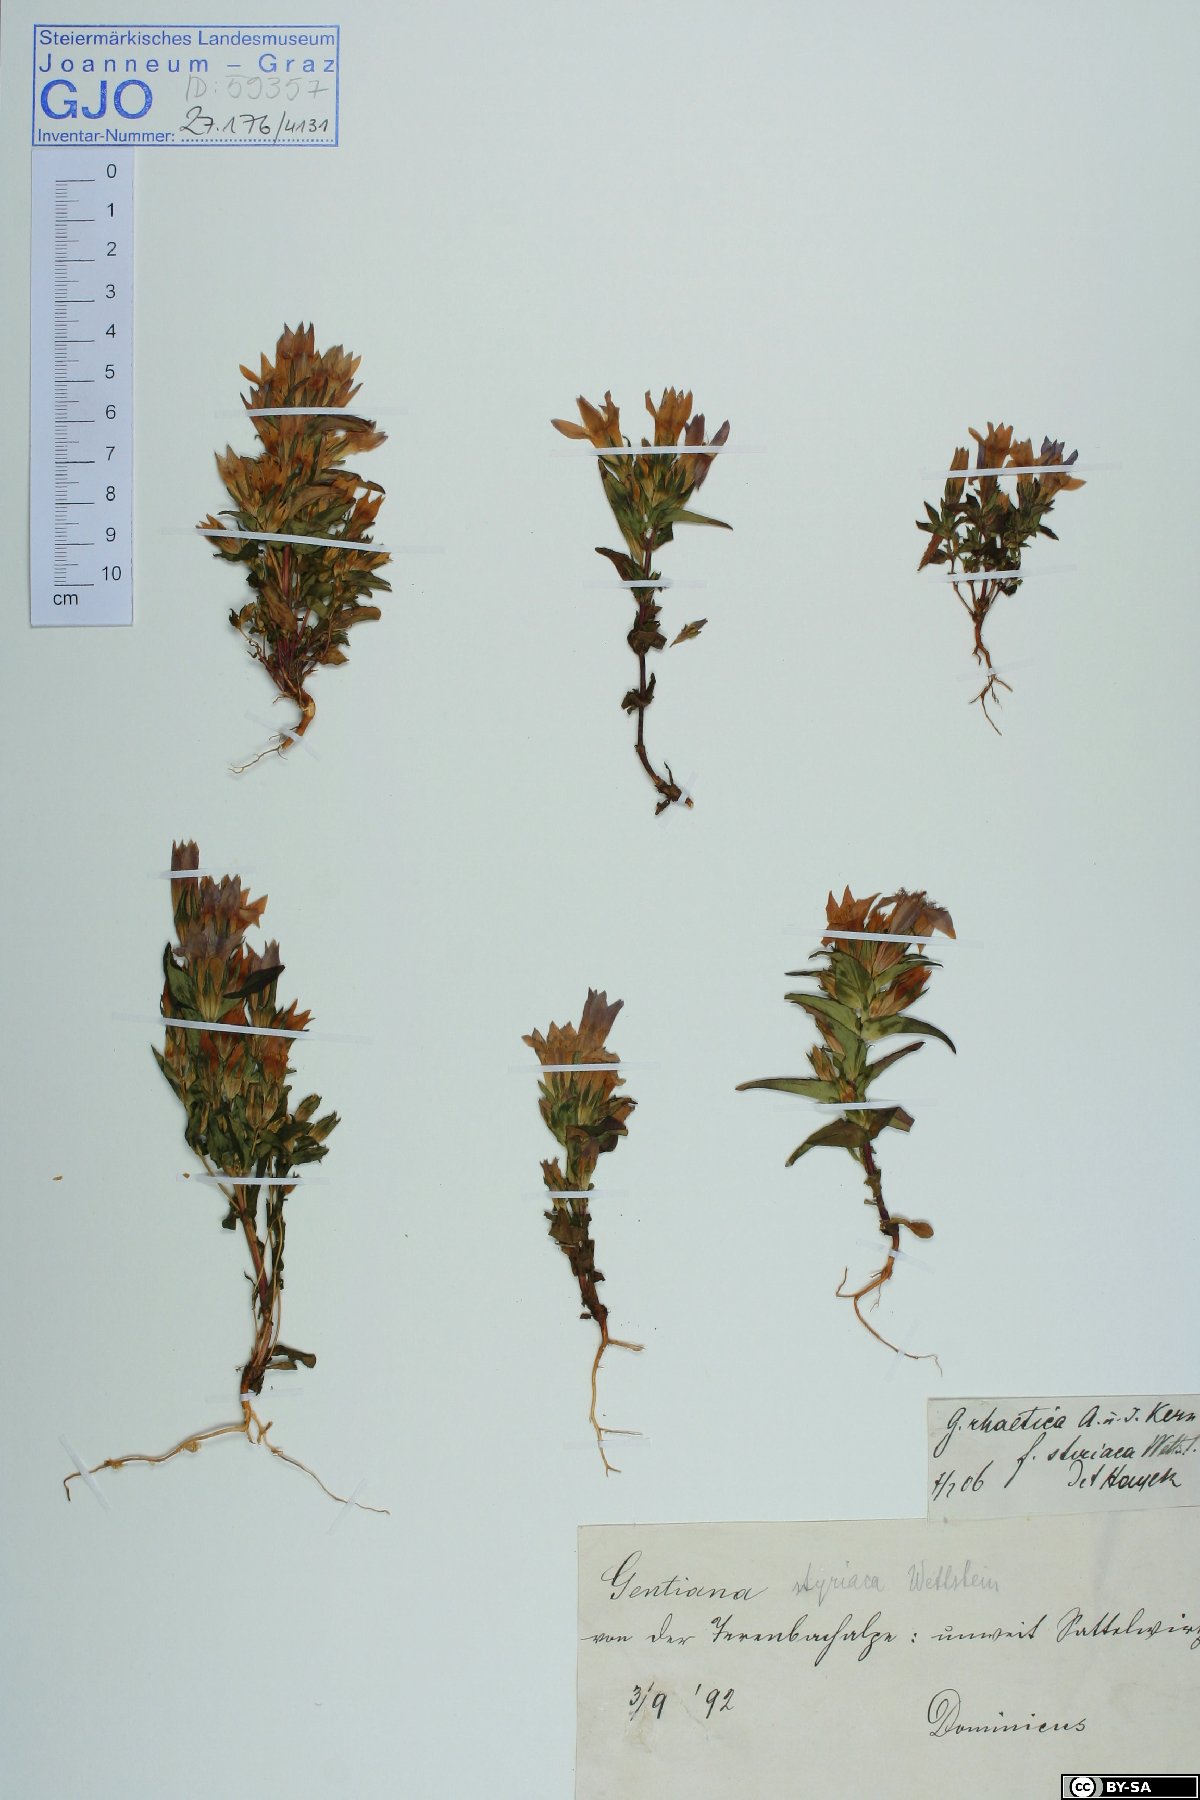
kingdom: Plantae
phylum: Tracheophyta
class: Magnoliopsida
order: Gentianales
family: Gentianaceae
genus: Gentianella
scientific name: Gentianella rhaetica
